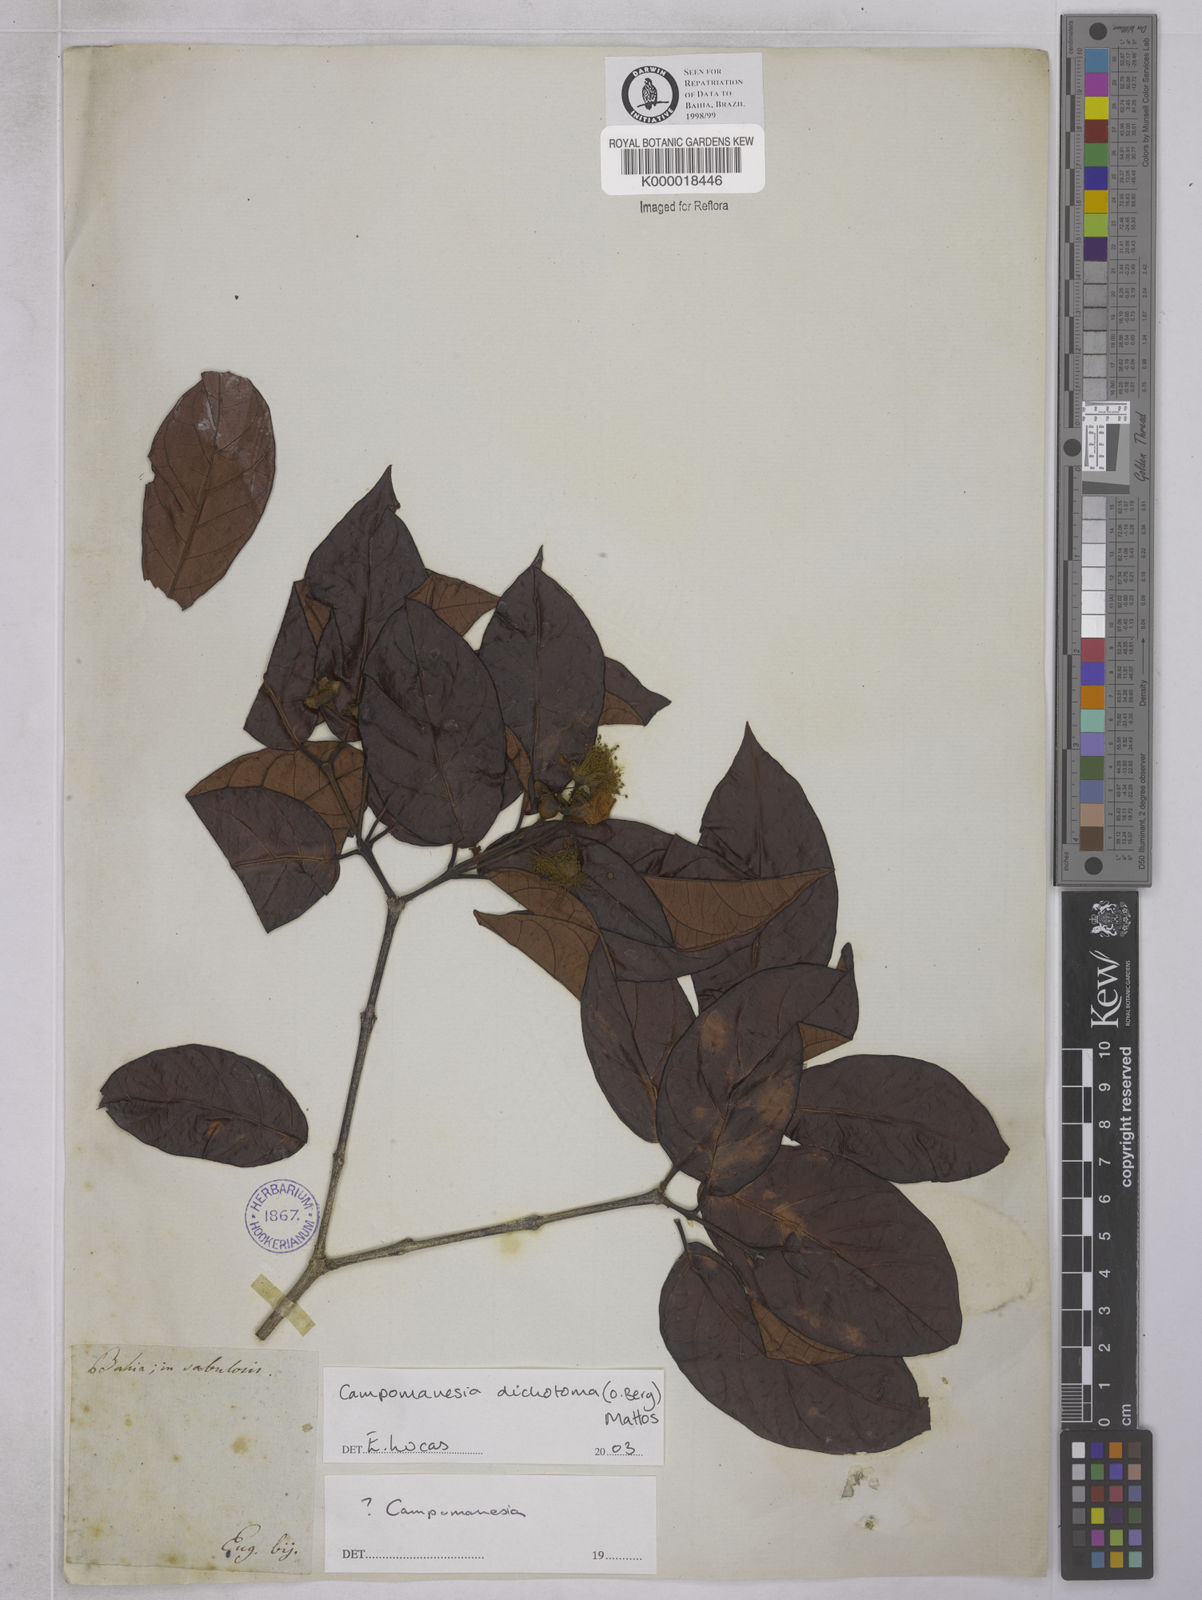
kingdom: Plantae
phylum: Tracheophyta
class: Magnoliopsida
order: Myrtales
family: Myrtaceae
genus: Campomanesia
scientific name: Campomanesia
